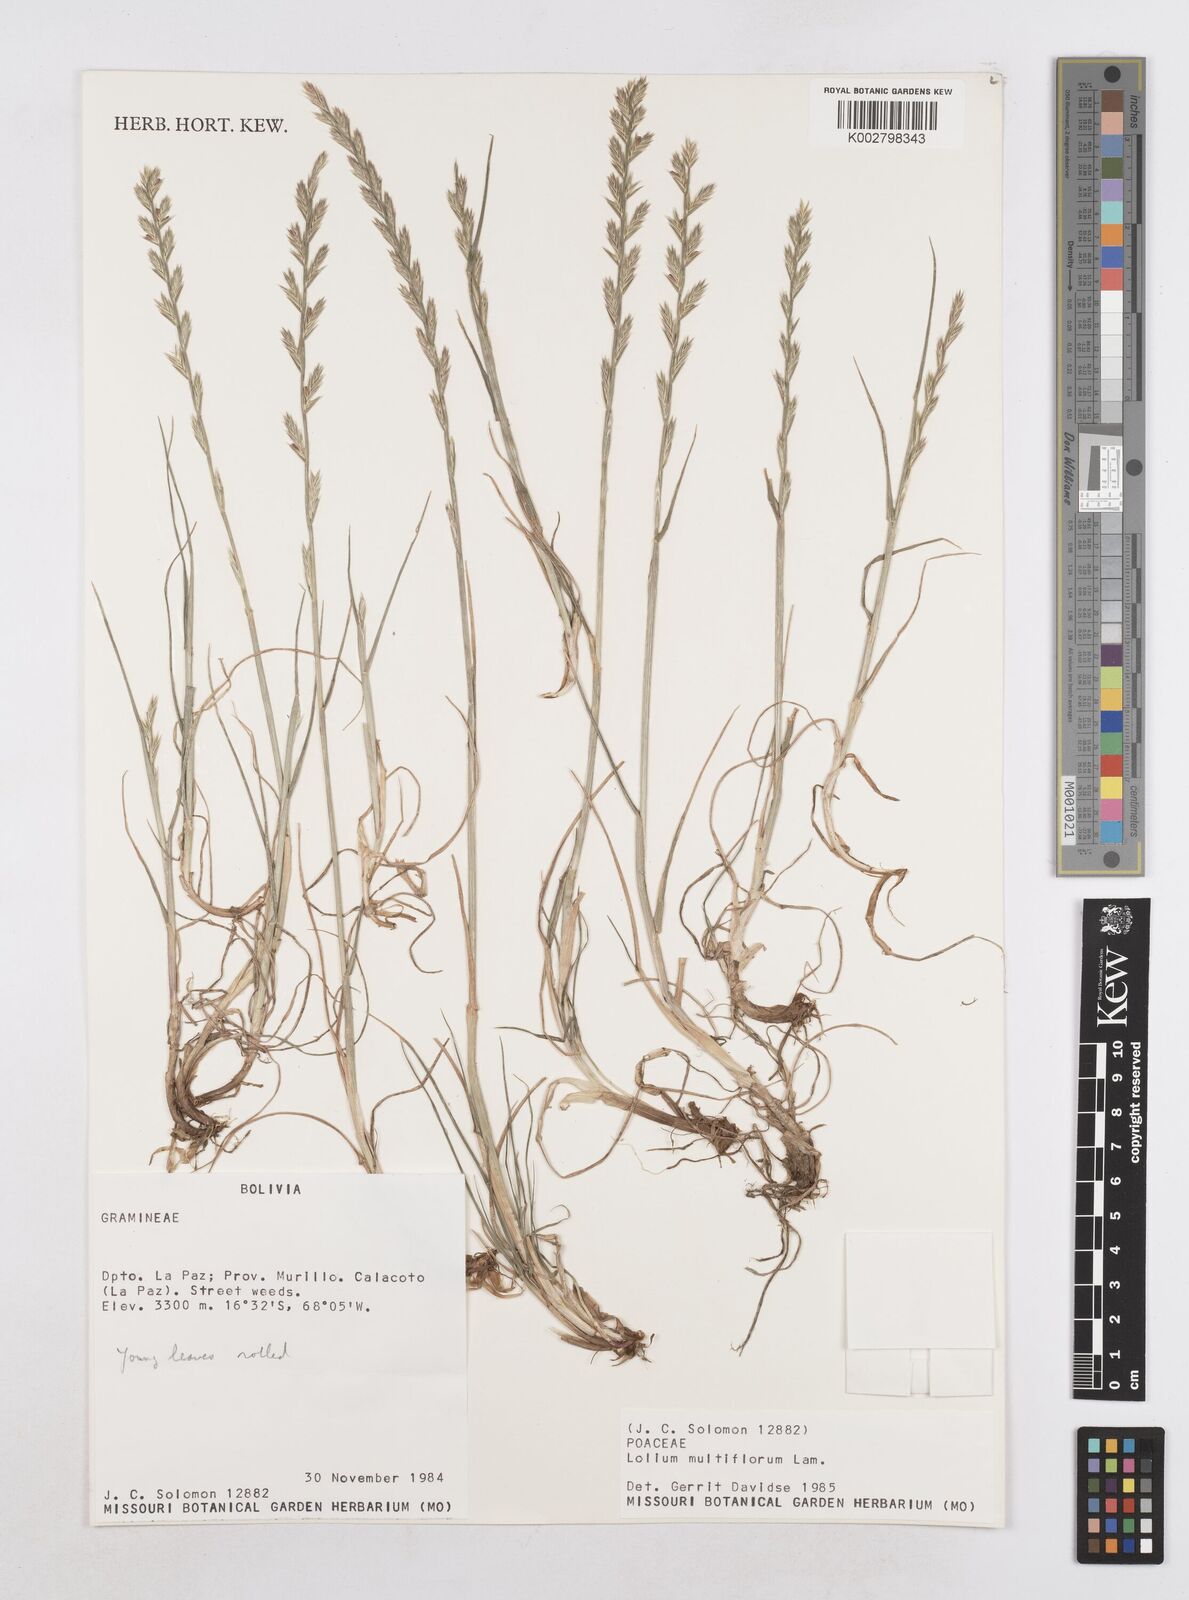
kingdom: Plantae
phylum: Tracheophyta
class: Liliopsida
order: Poales
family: Poaceae
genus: Lolium
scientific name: Lolium multiflorum
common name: Annual ryegrass
